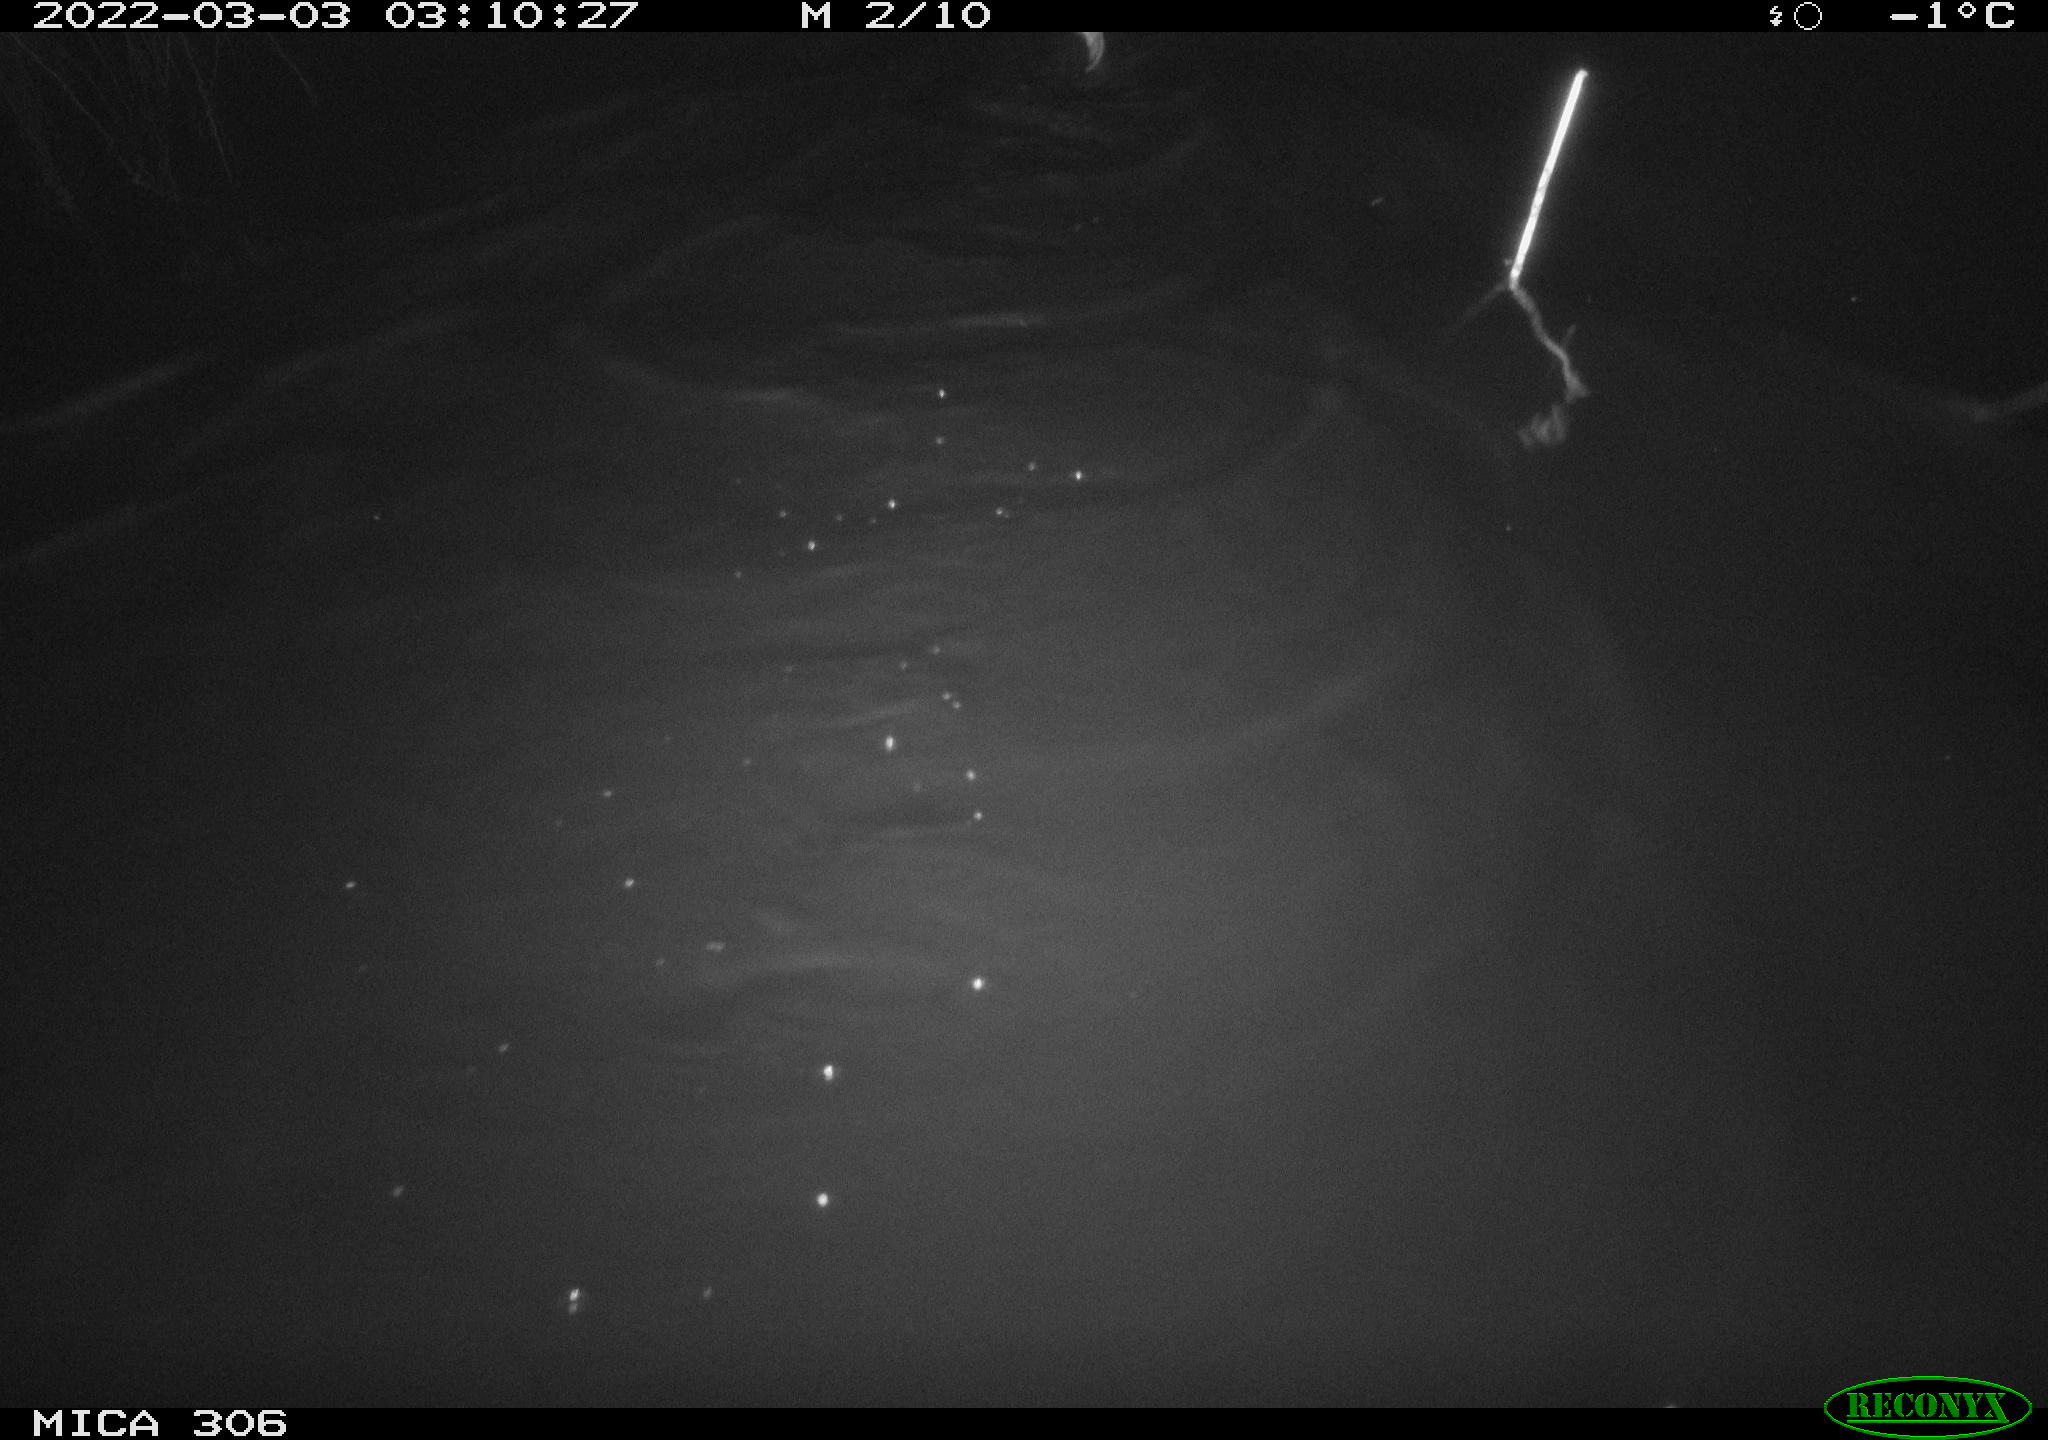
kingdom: Animalia
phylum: Chordata
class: Mammalia
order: Rodentia
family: Cricetidae
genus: Ondatra
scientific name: Ondatra zibethicus
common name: Muskrat
